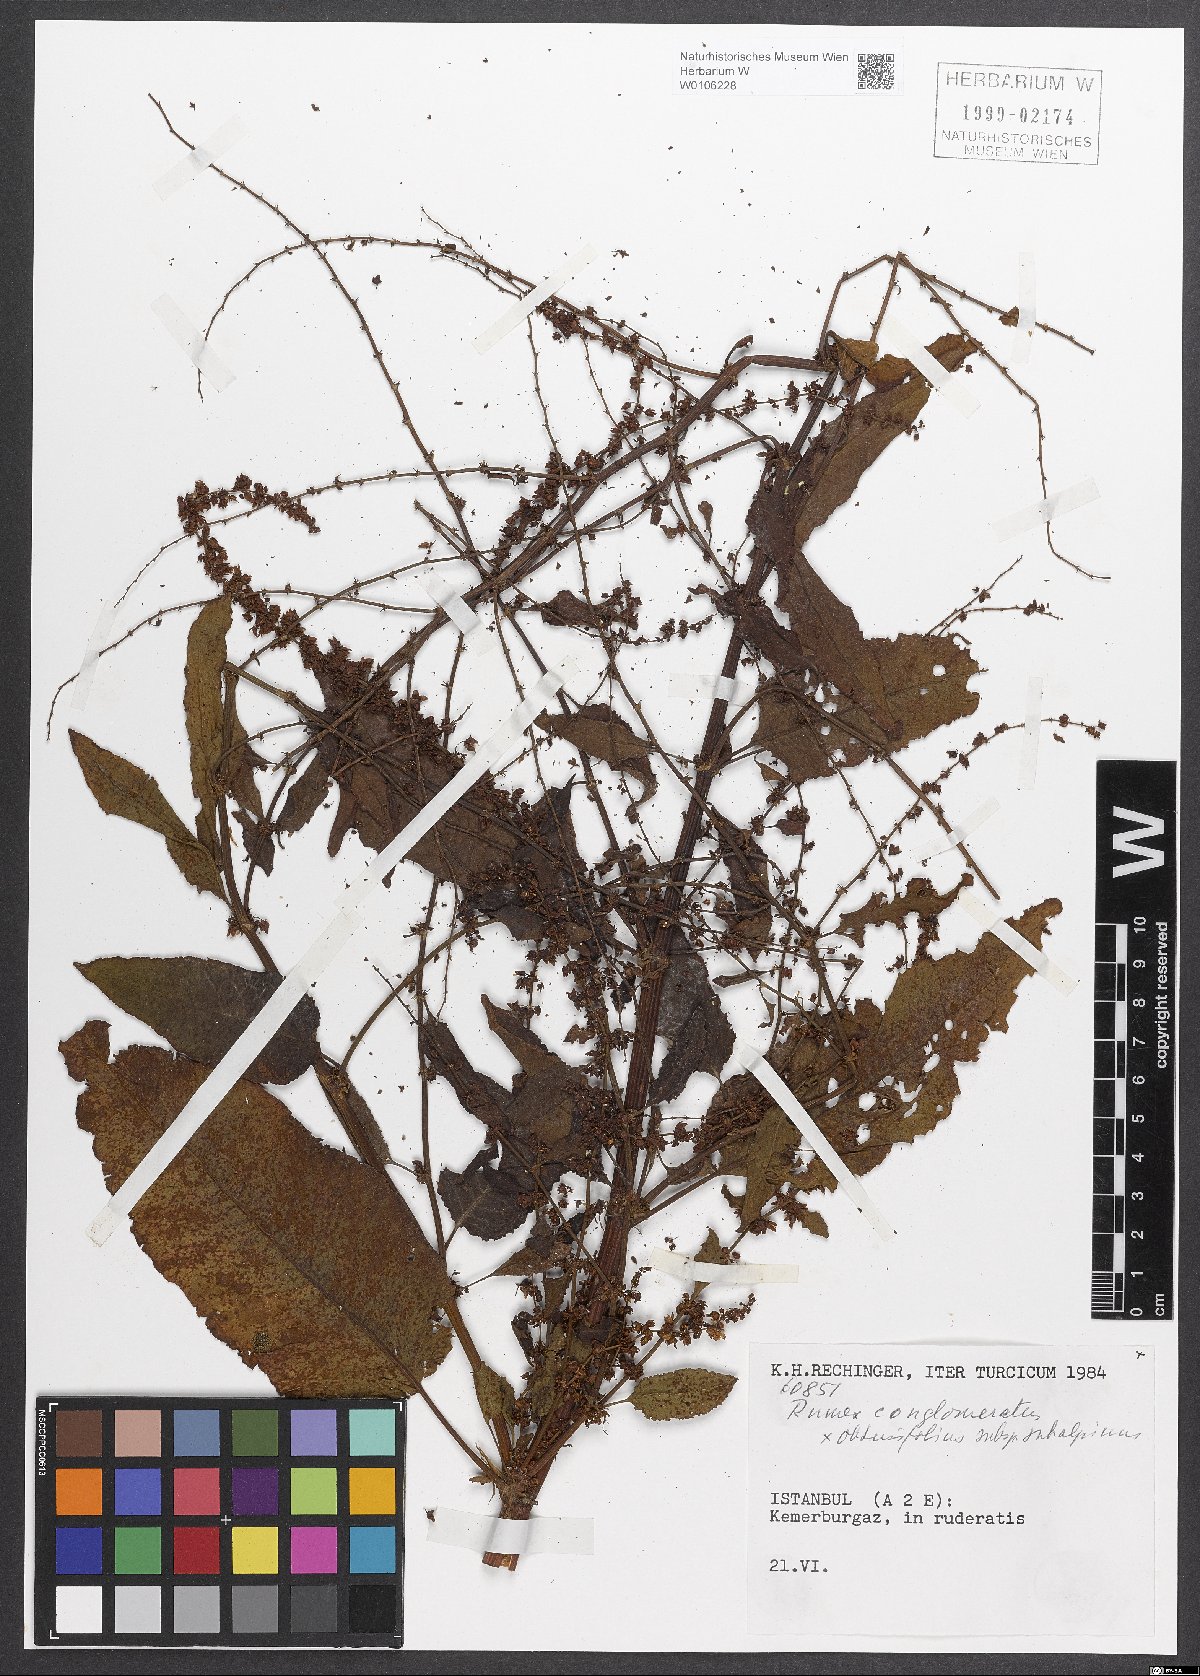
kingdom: Plantae
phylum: Tracheophyta
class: Magnoliopsida
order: Caryophyllales
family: Polygonaceae
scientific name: Polygonaceae
